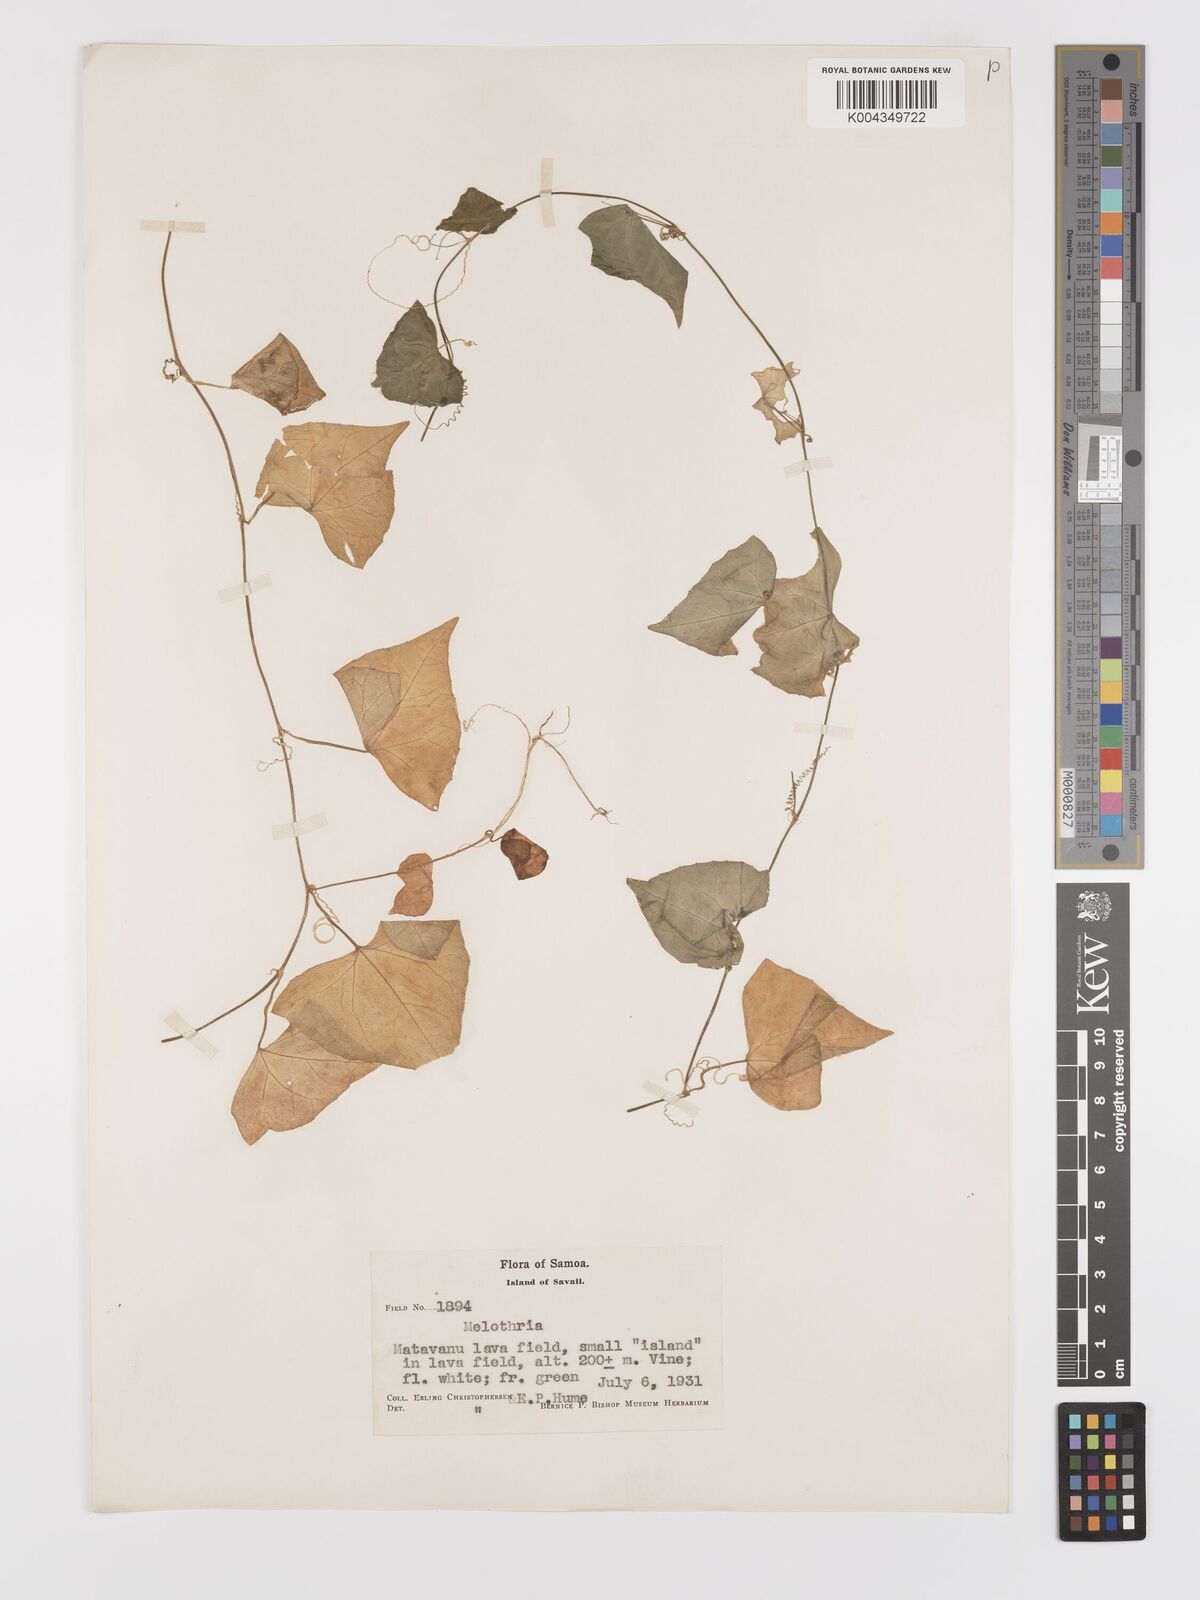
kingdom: Plantae
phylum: Tracheophyta
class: Magnoliopsida
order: Cucurbitales
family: Cucurbitaceae
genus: Zehneria
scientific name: Zehneria mucronata
